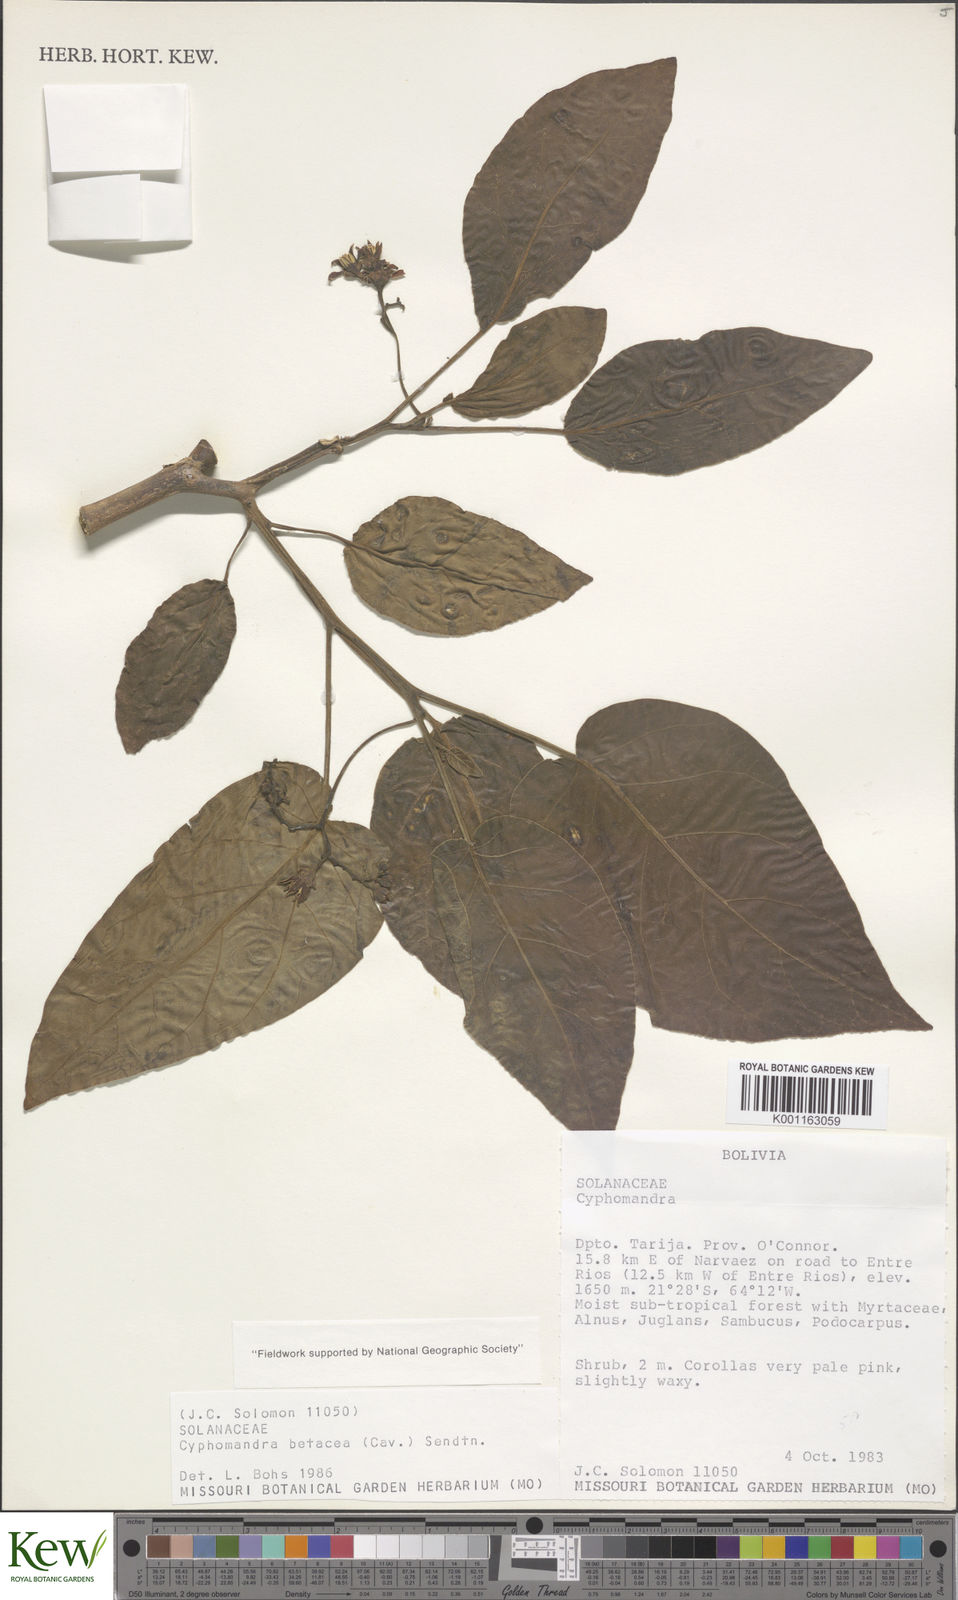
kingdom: Plantae
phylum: Tracheophyta
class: Magnoliopsida
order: Solanales
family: Solanaceae
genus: Solanum
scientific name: Solanum betaceum
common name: Tamarillo
